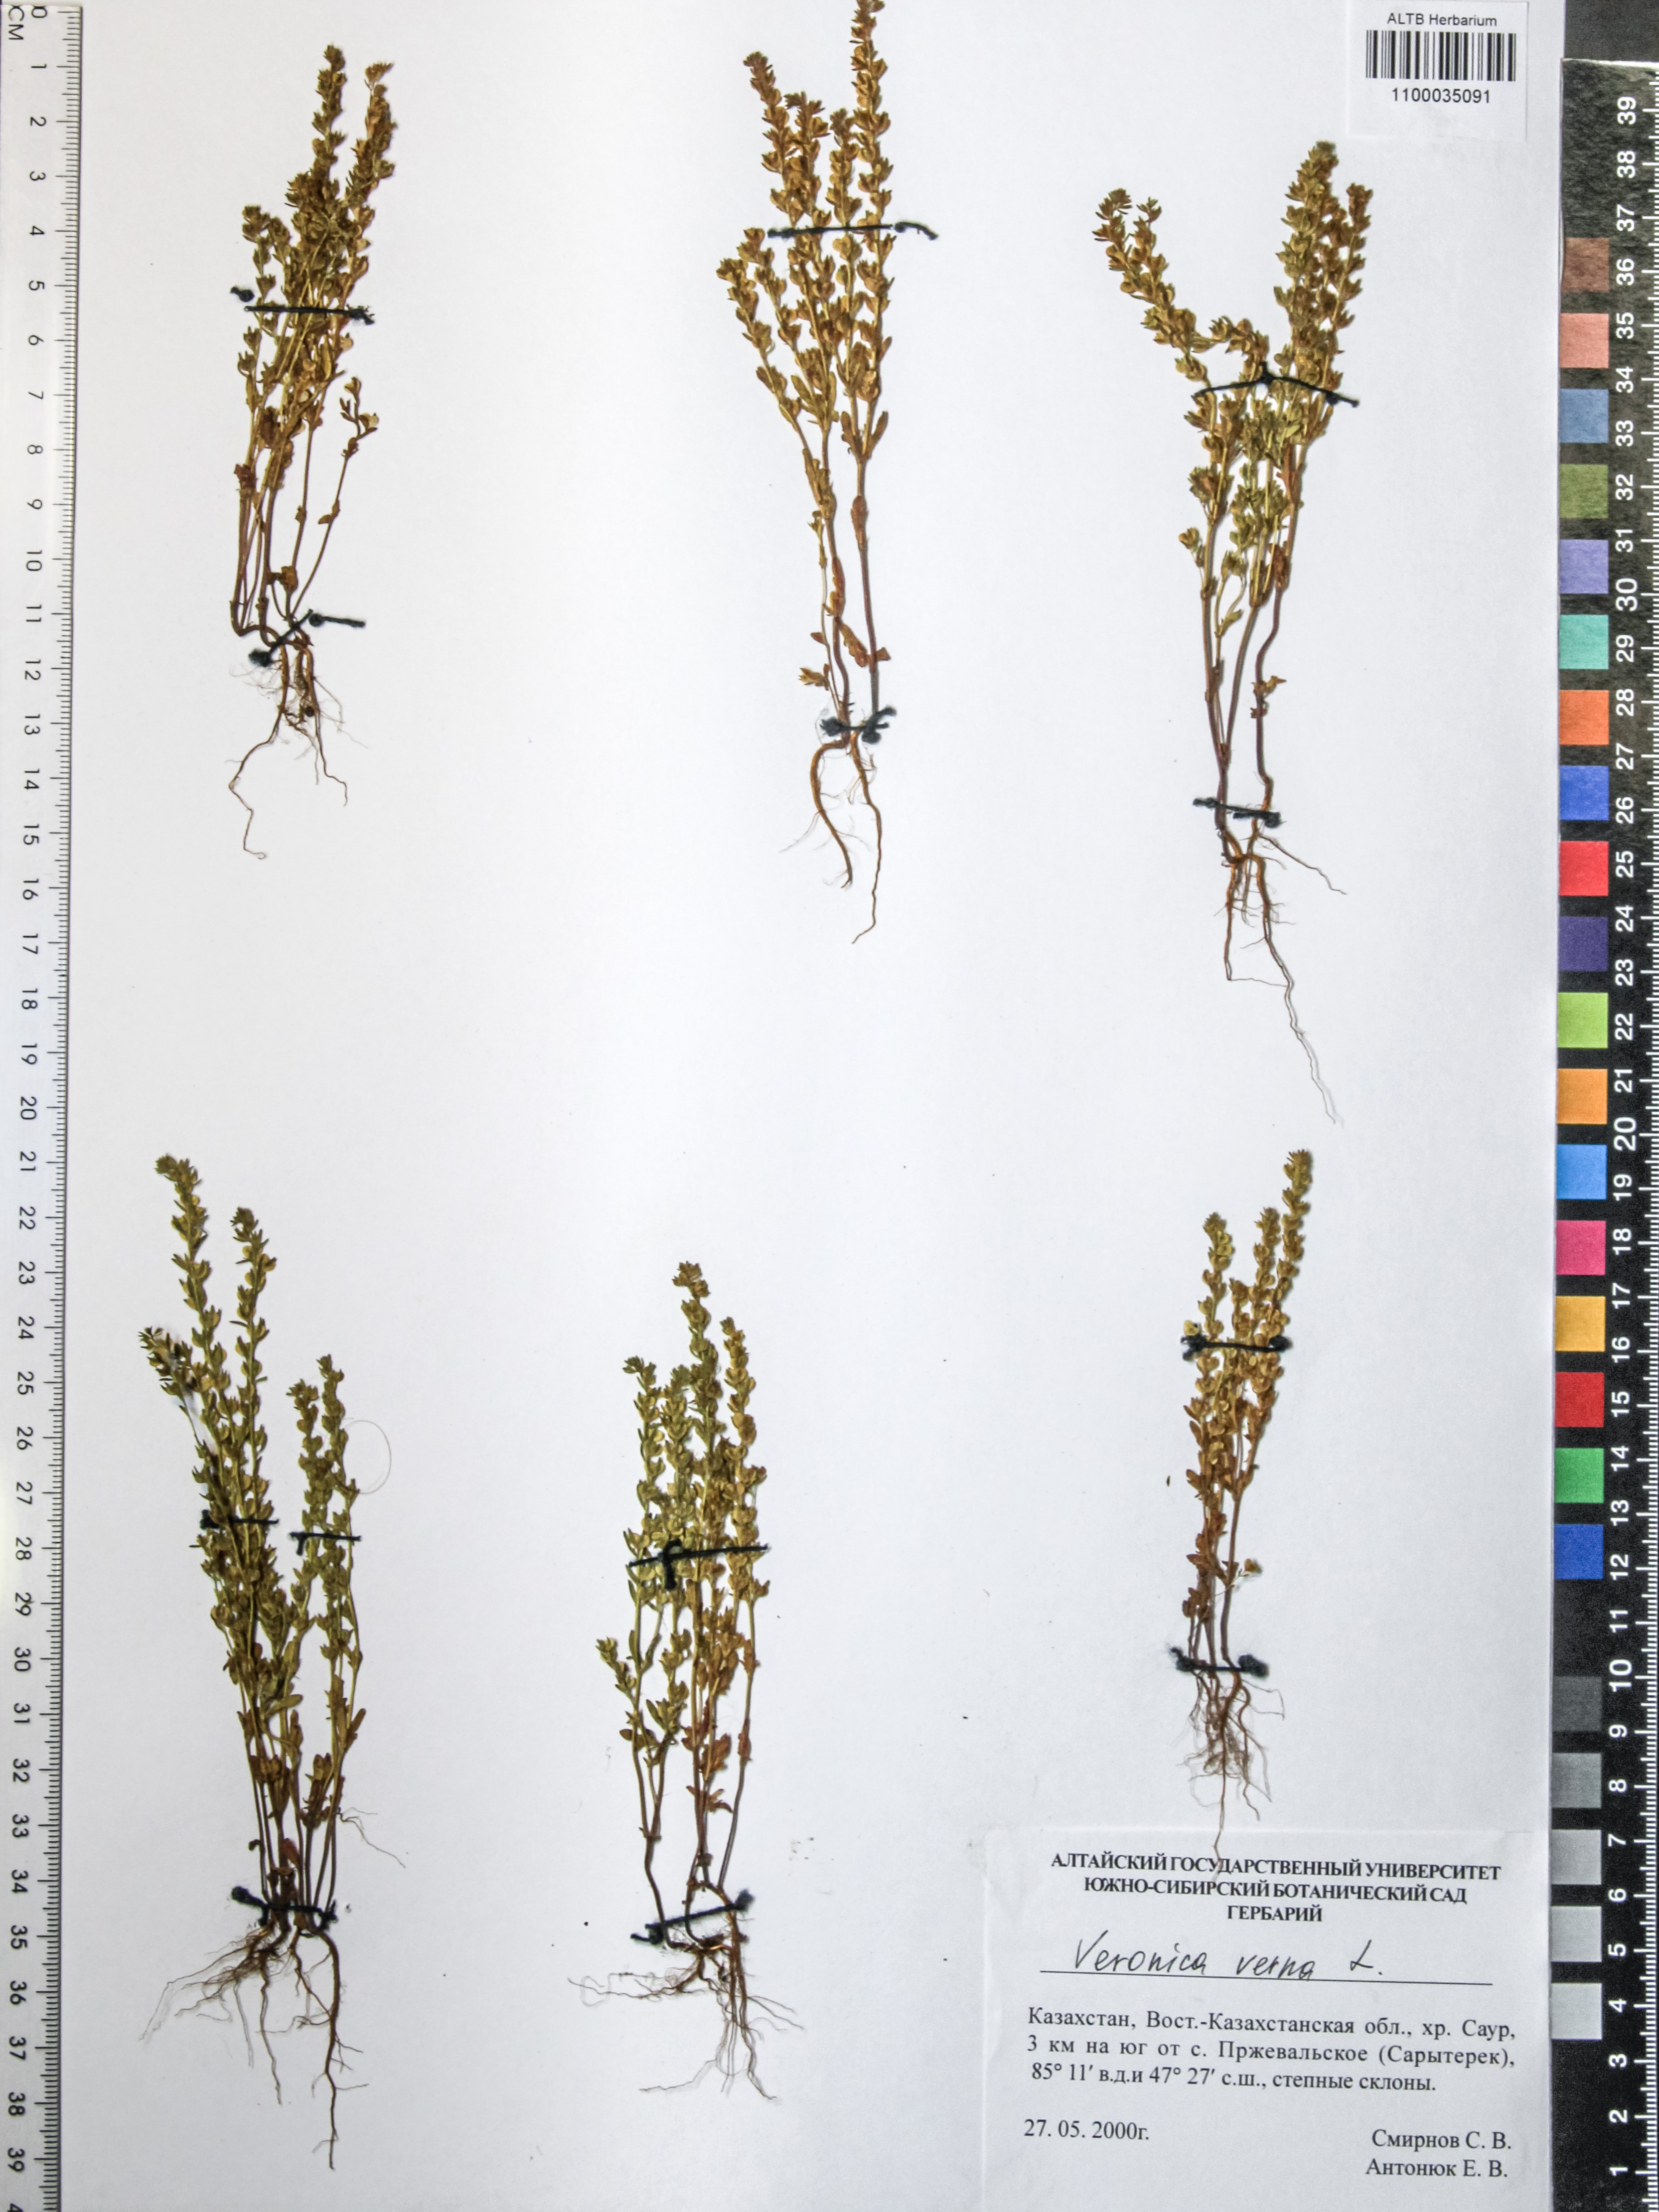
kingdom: Plantae
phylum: Tracheophyta
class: Magnoliopsida
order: Lamiales
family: Plantaginaceae
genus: Veronica
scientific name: Veronica verna
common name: Spring speedwell
